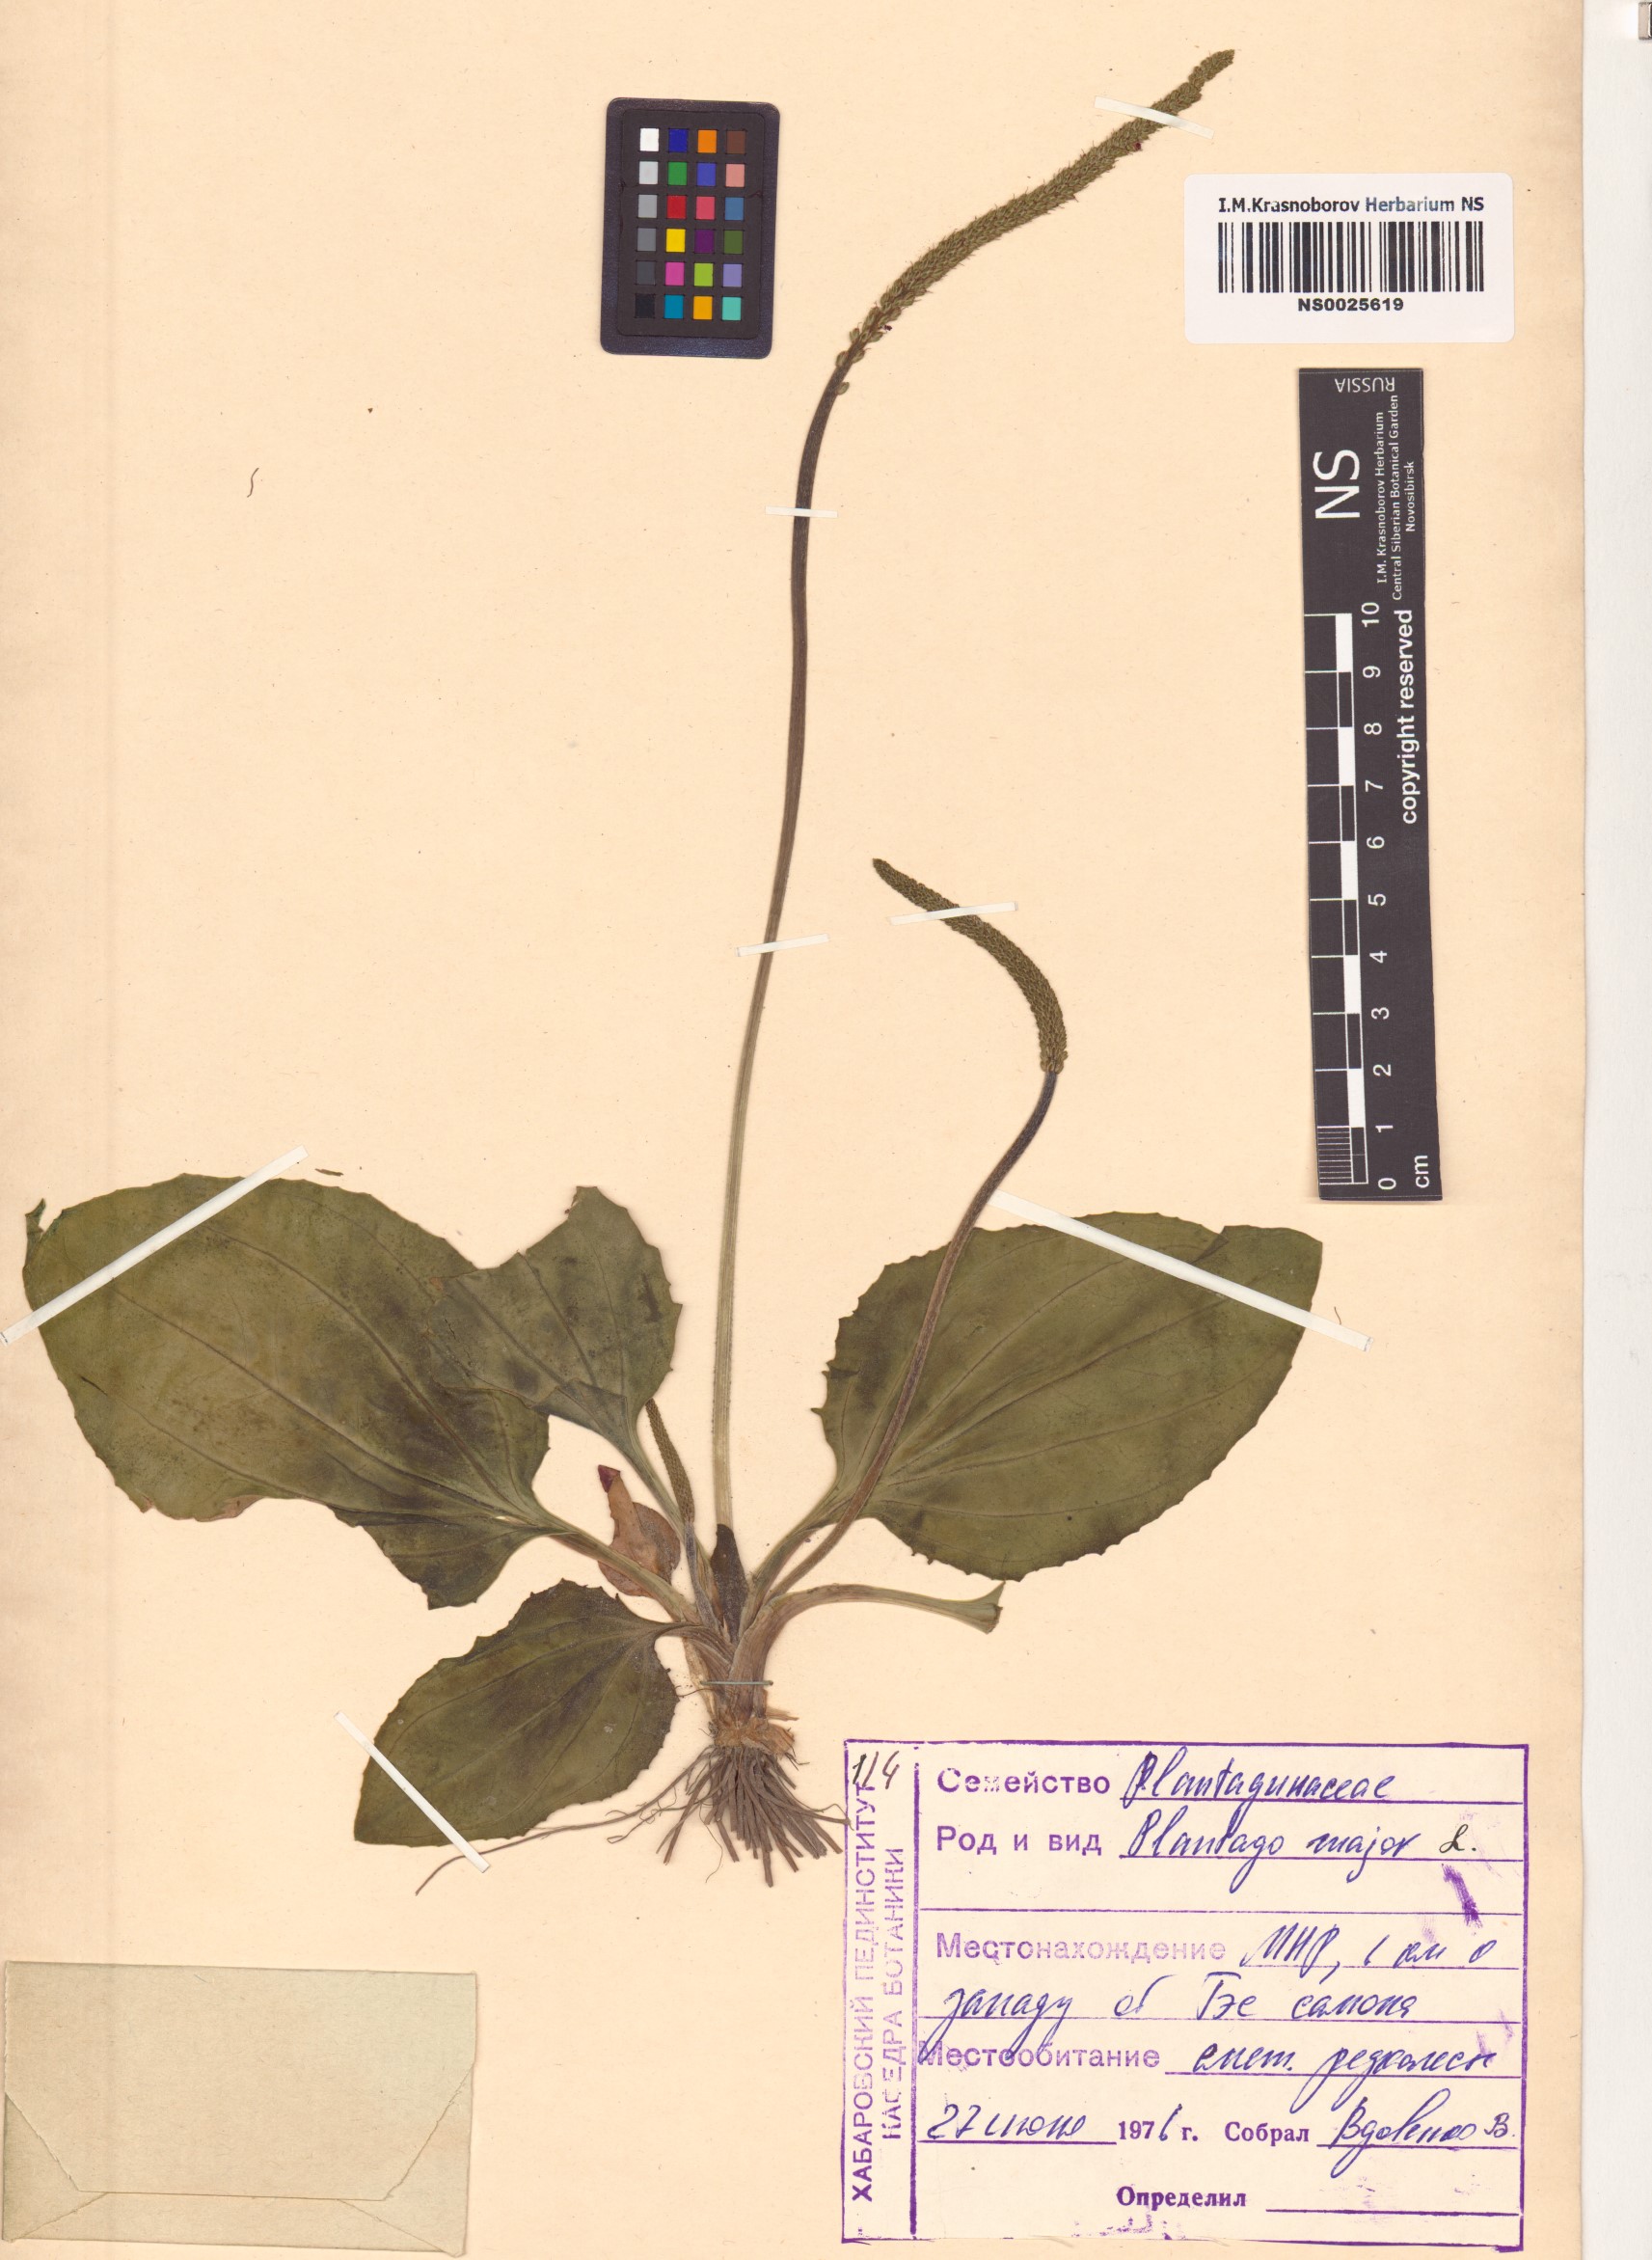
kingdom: Plantae
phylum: Tracheophyta
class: Magnoliopsida
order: Lamiales
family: Plantaginaceae
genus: Plantago
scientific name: Plantago major
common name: Common plantain
